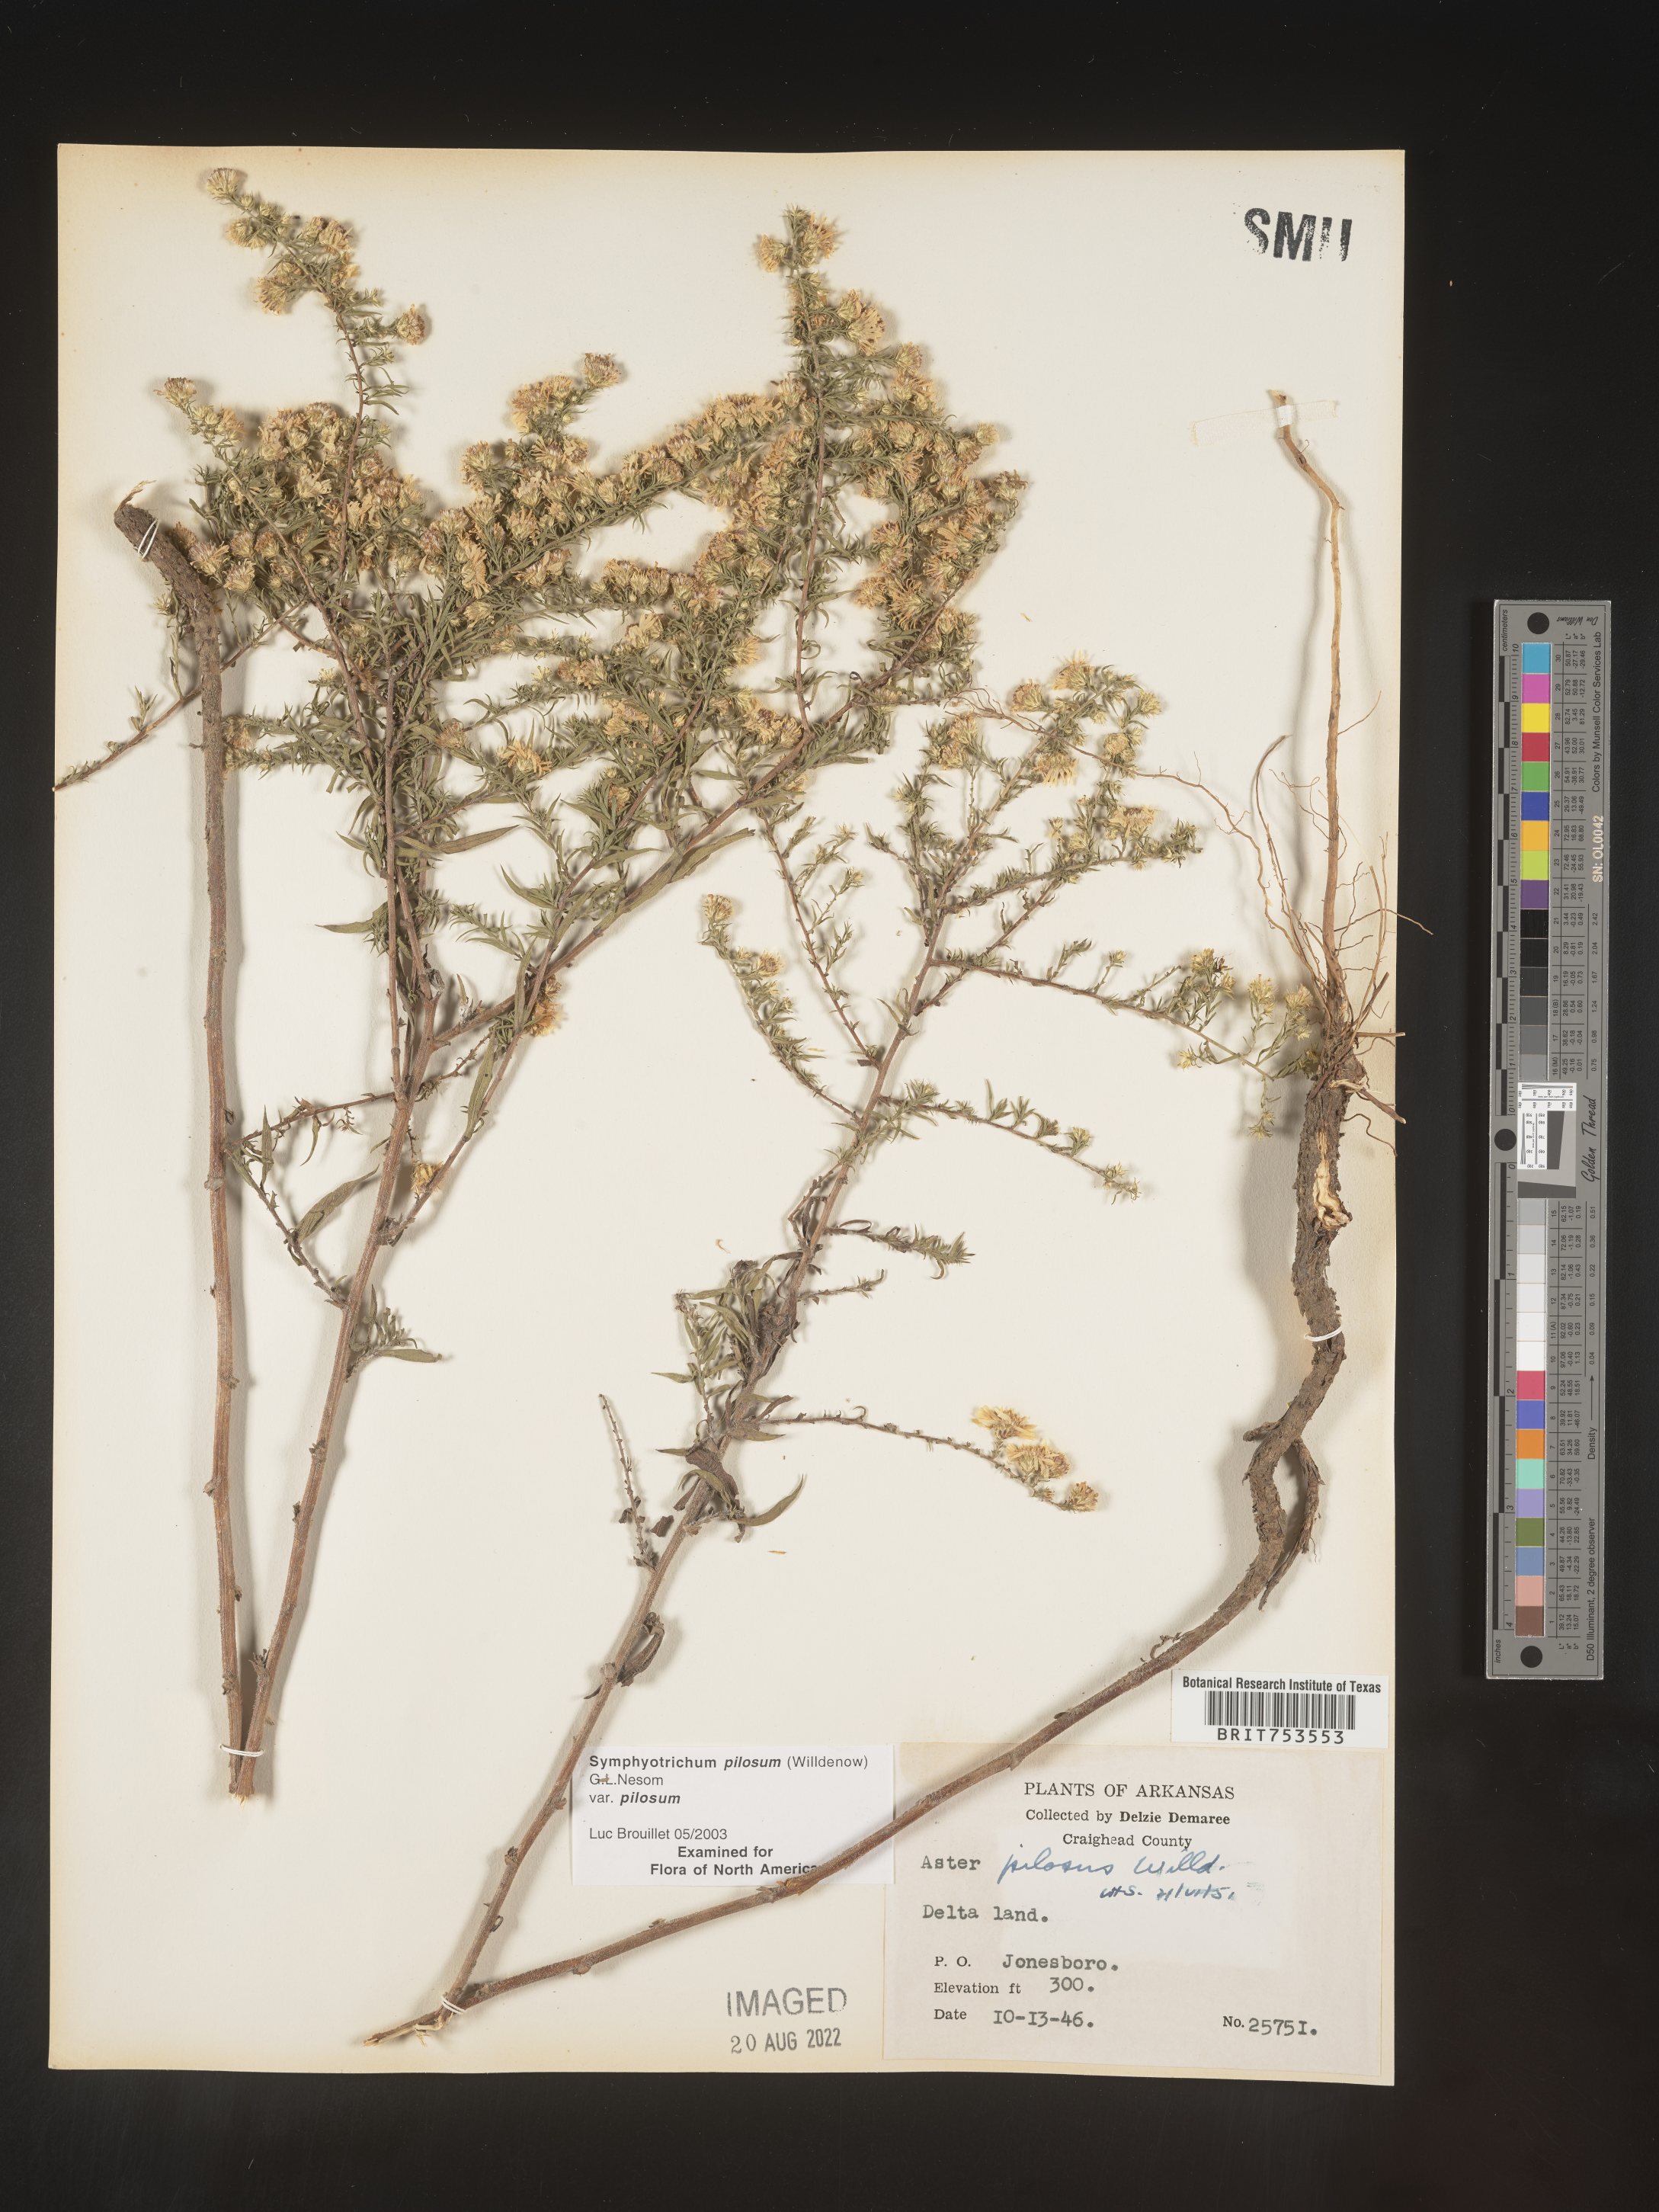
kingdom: Plantae
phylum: Tracheophyta
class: Magnoliopsida
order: Asterales
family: Asteraceae
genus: Symphyotrichum
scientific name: Symphyotrichum pilosum
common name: Awl aster
